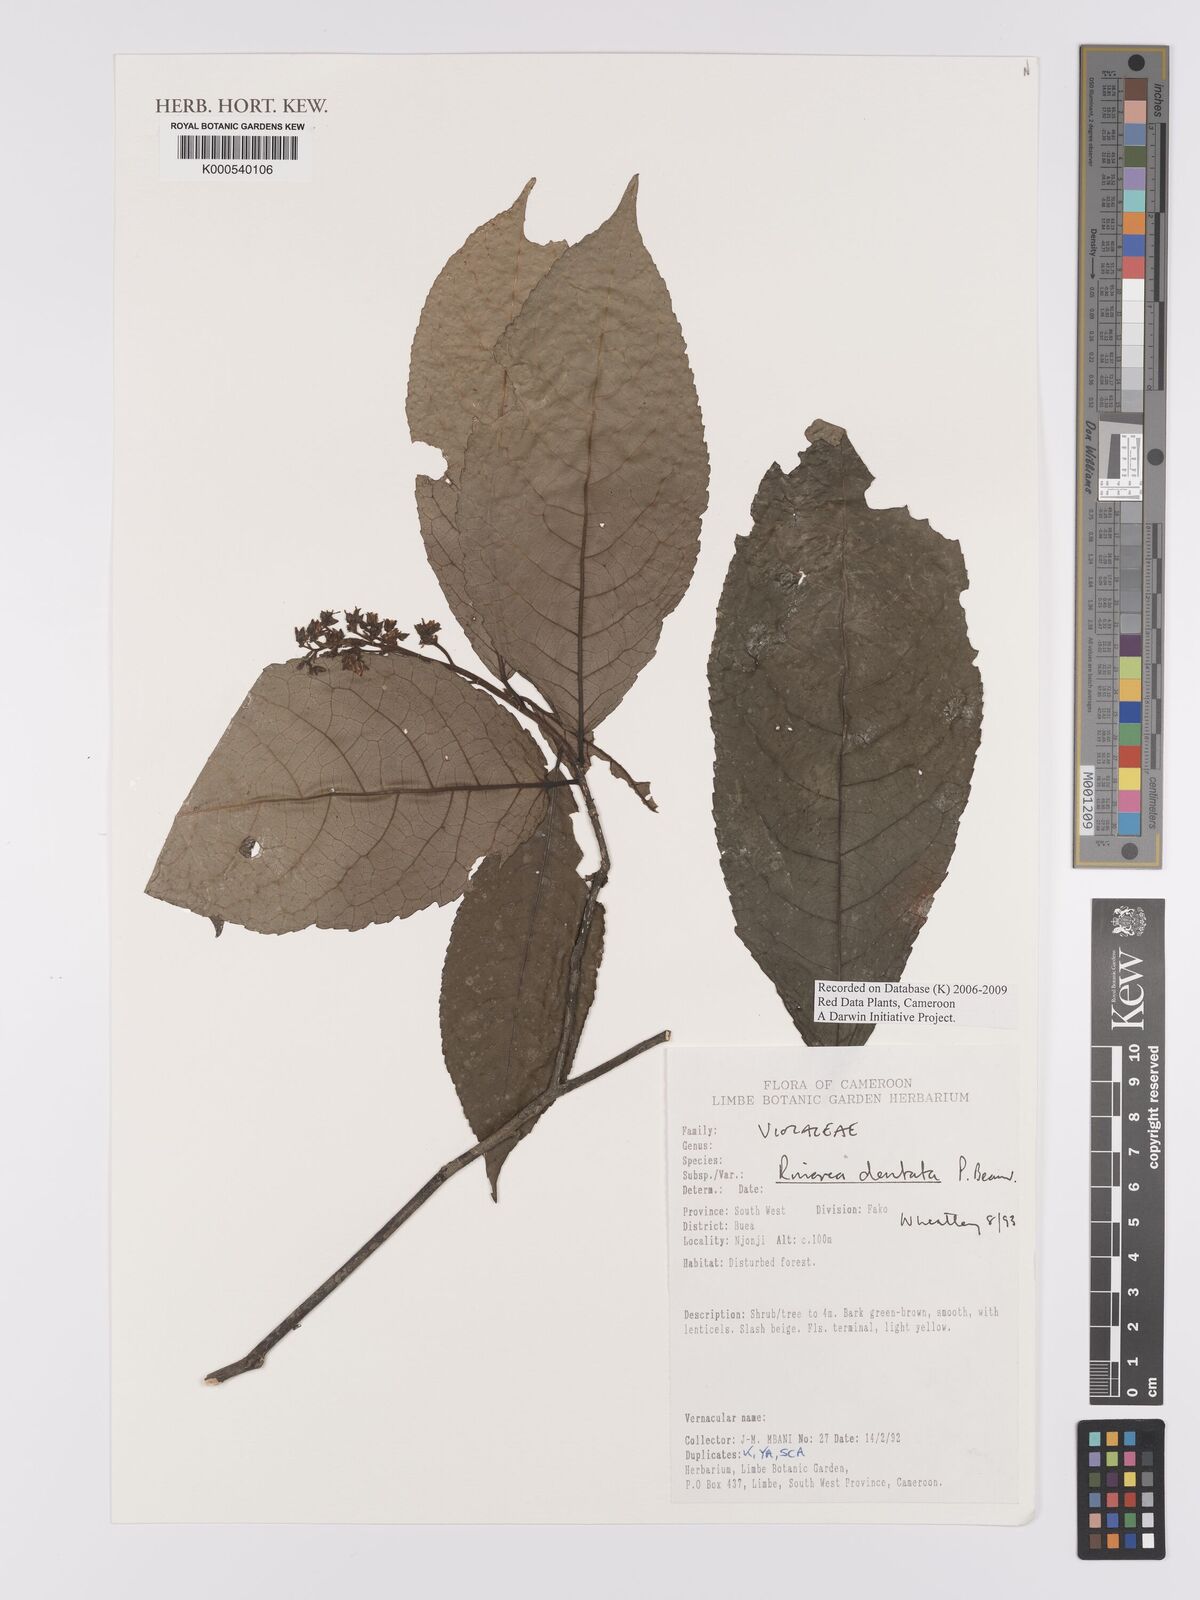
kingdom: Plantae
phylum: Tracheophyta
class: Magnoliopsida
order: Malpighiales
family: Violaceae
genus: Rinorea
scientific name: Rinorea dentata
